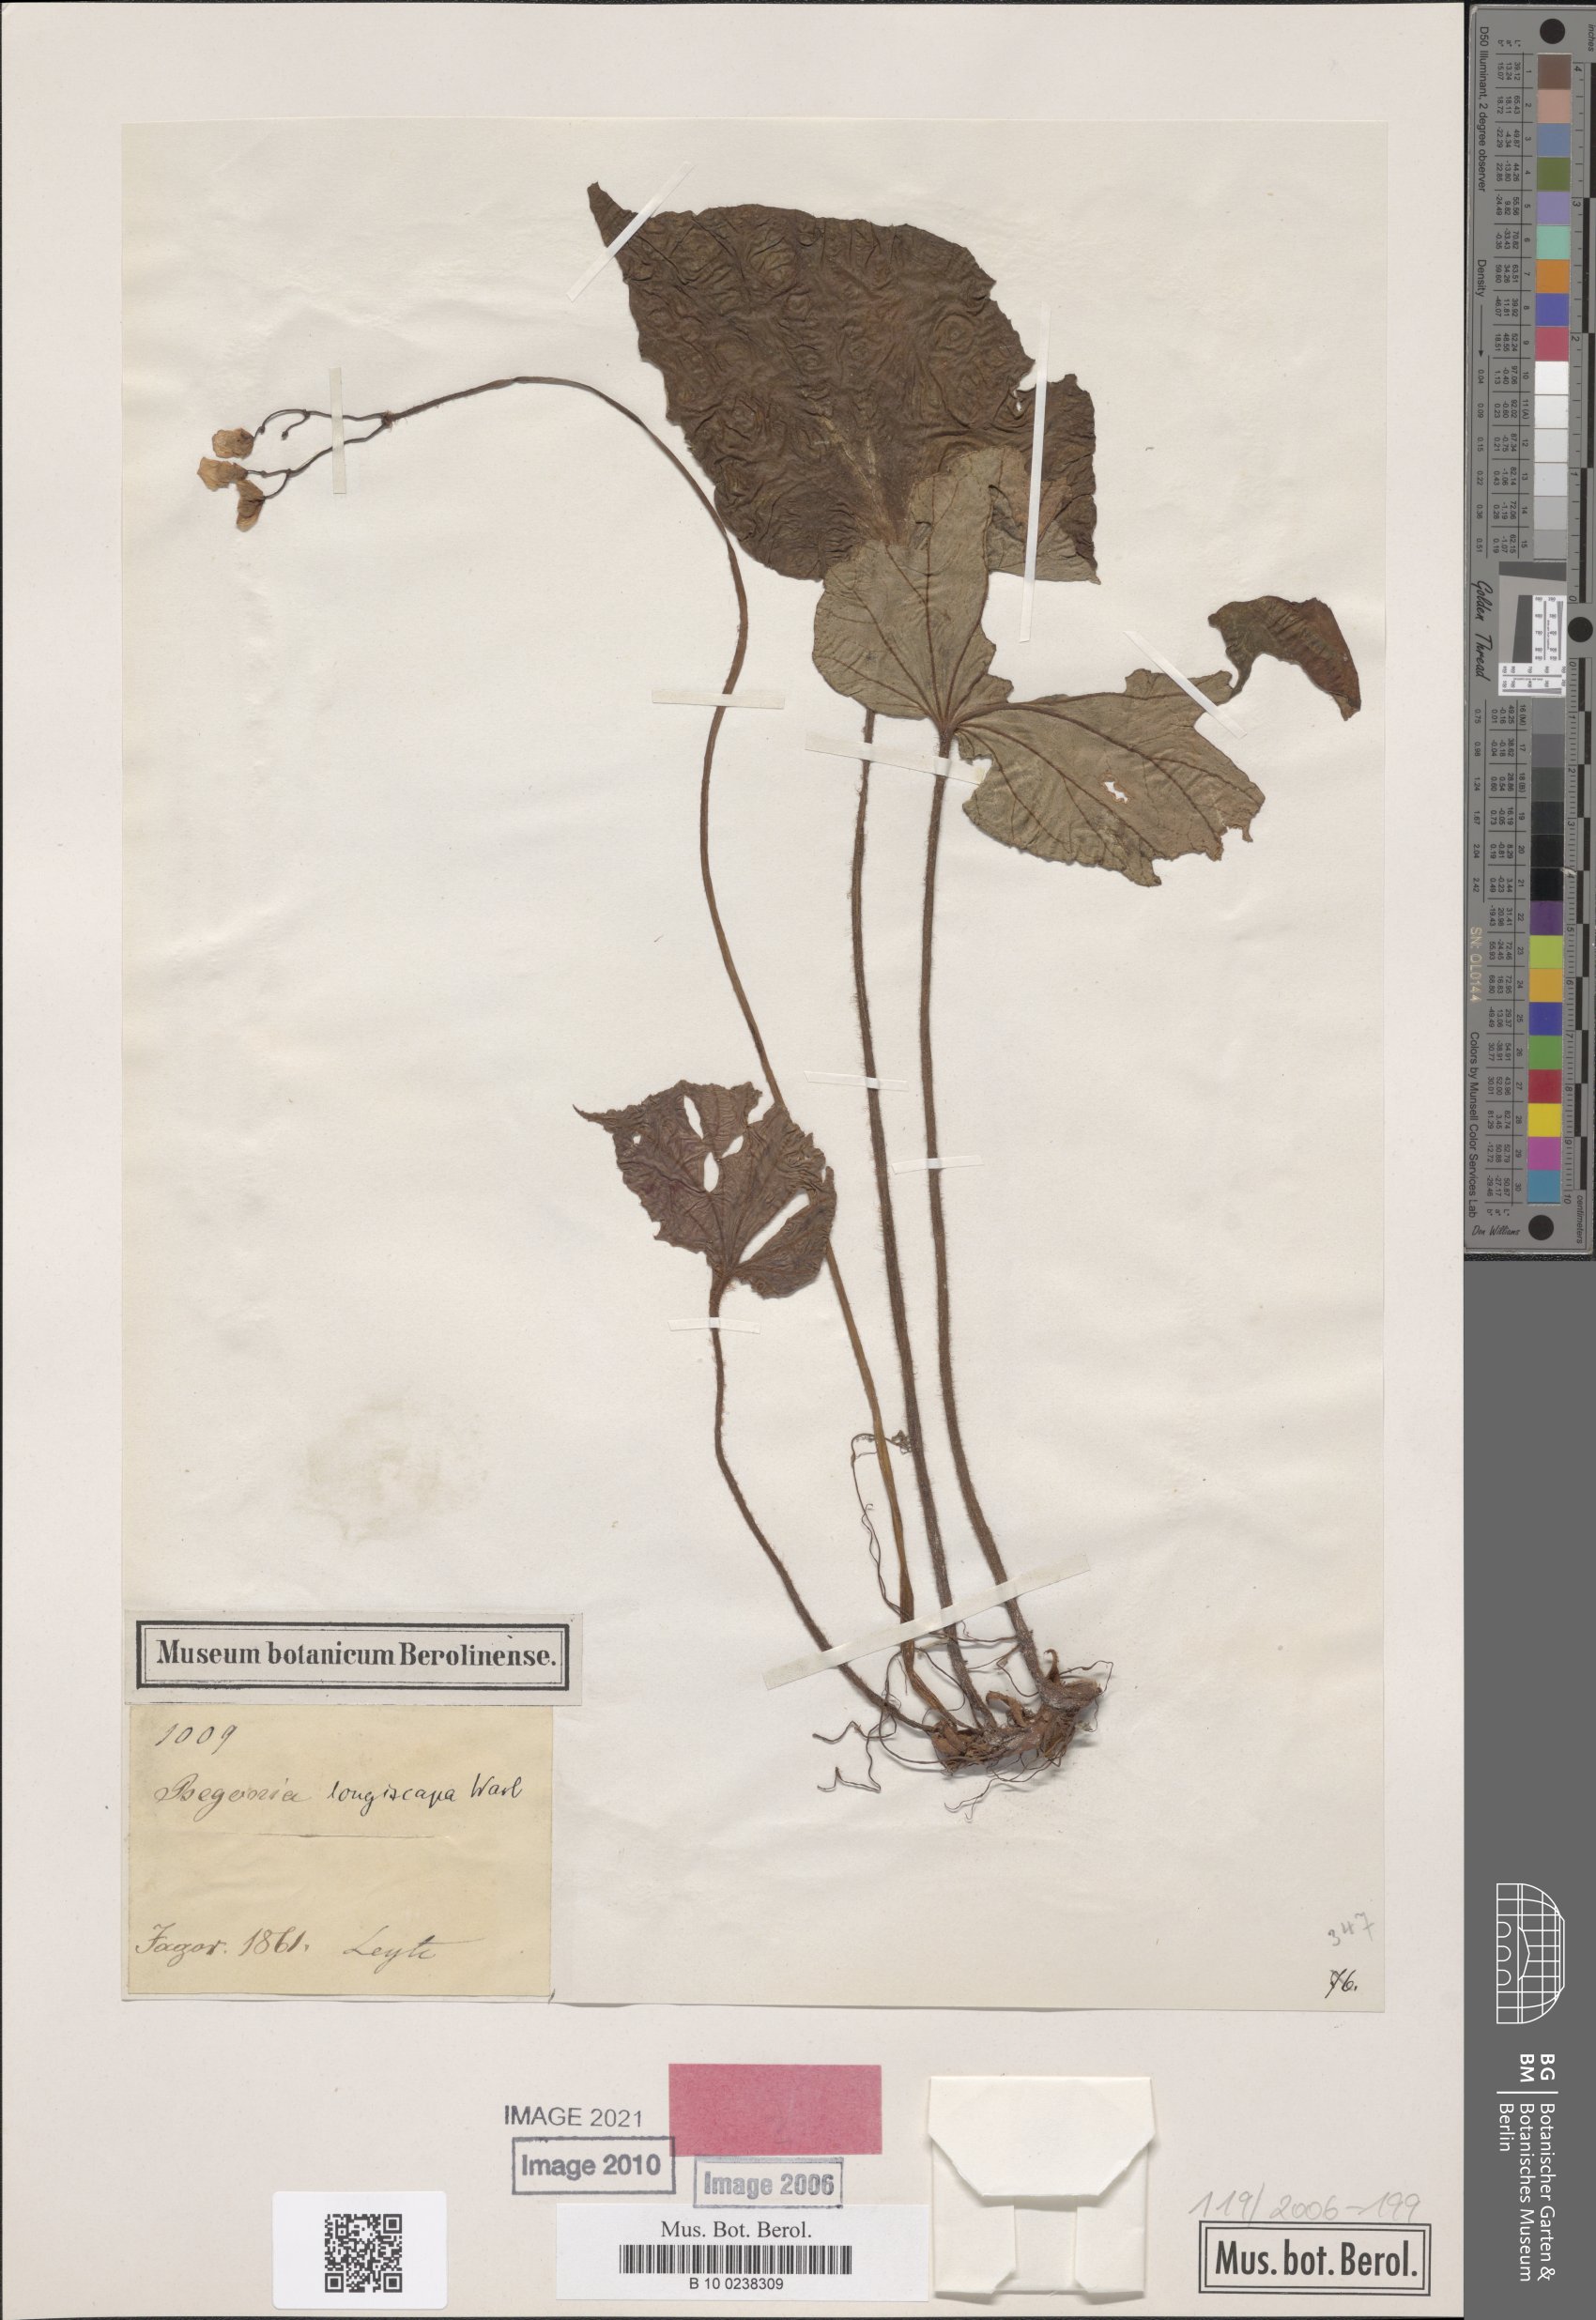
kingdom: Plantae
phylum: Tracheophyta
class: Magnoliopsida
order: Cucurbitales
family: Begoniaceae
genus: Begonia
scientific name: Begonia longiscapa
